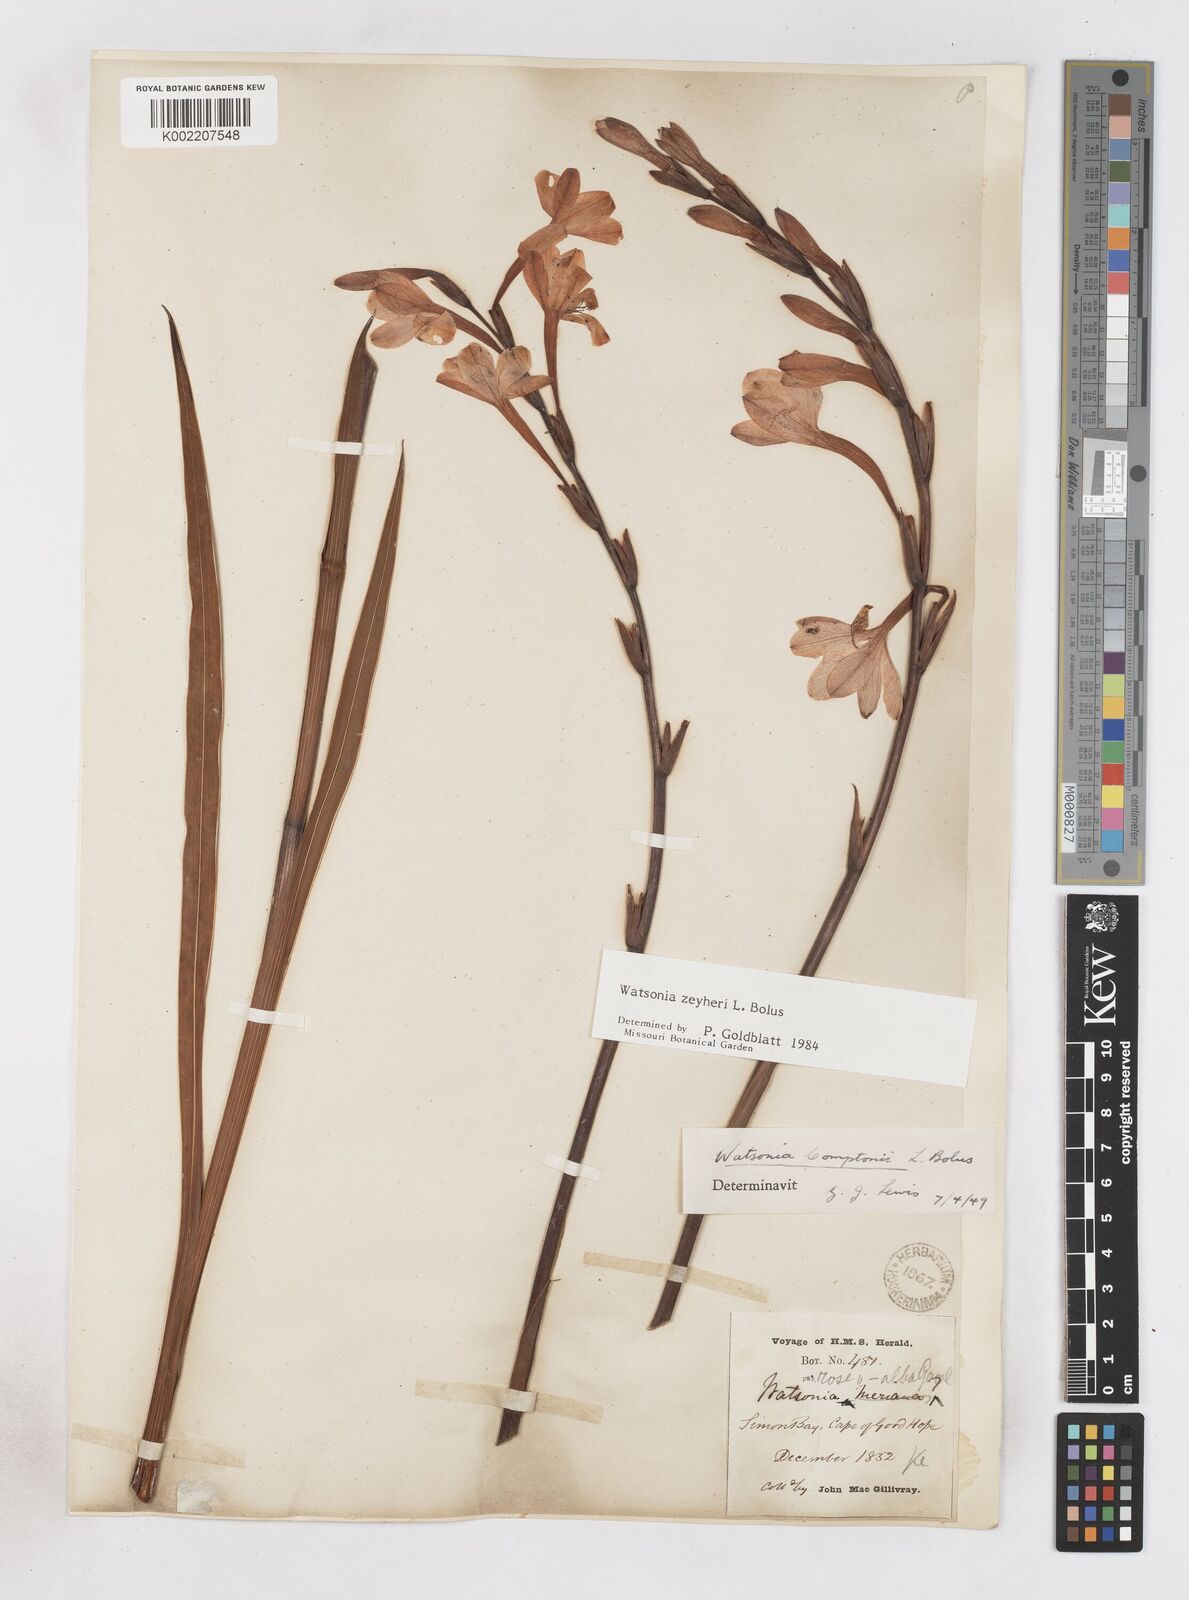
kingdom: Plantae
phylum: Tracheophyta
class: Liliopsida
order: Asparagales
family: Iridaceae
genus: Watsonia
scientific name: Watsonia zeyheri
